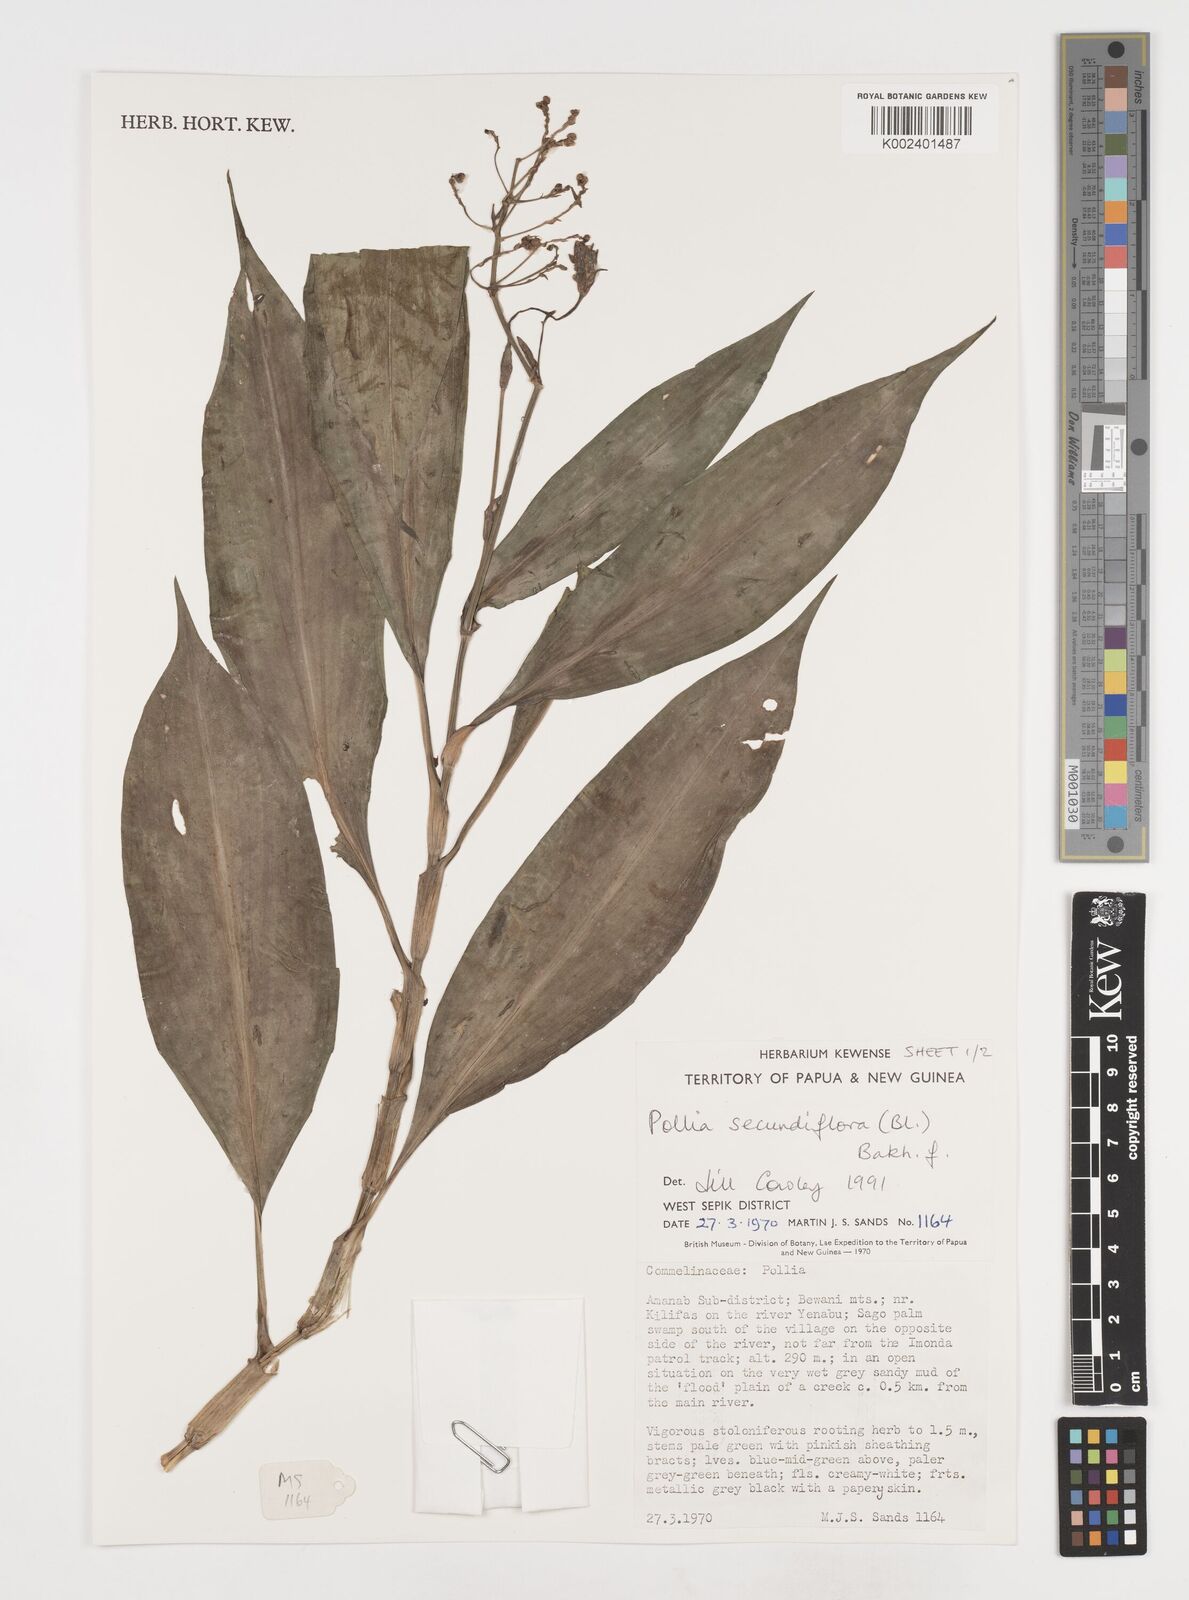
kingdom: Plantae
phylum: Tracheophyta
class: Liliopsida
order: Commelinales
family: Commelinaceae
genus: Pollia
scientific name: Pollia secundiflora
